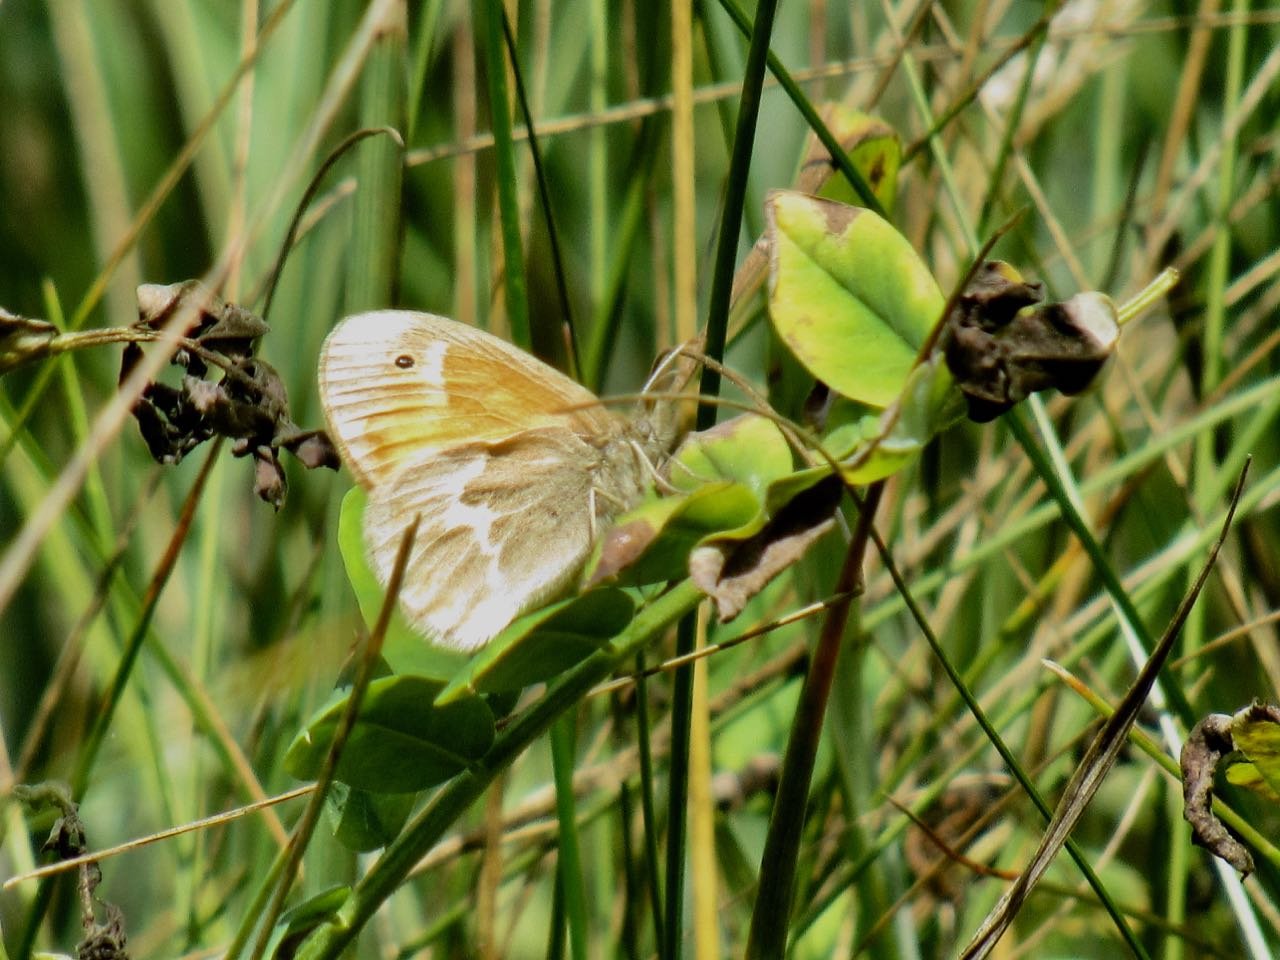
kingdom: Animalia
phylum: Arthropoda
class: Insecta
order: Lepidoptera
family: Nymphalidae
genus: Coenonympha
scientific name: Coenonympha tullia
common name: Large Heath
